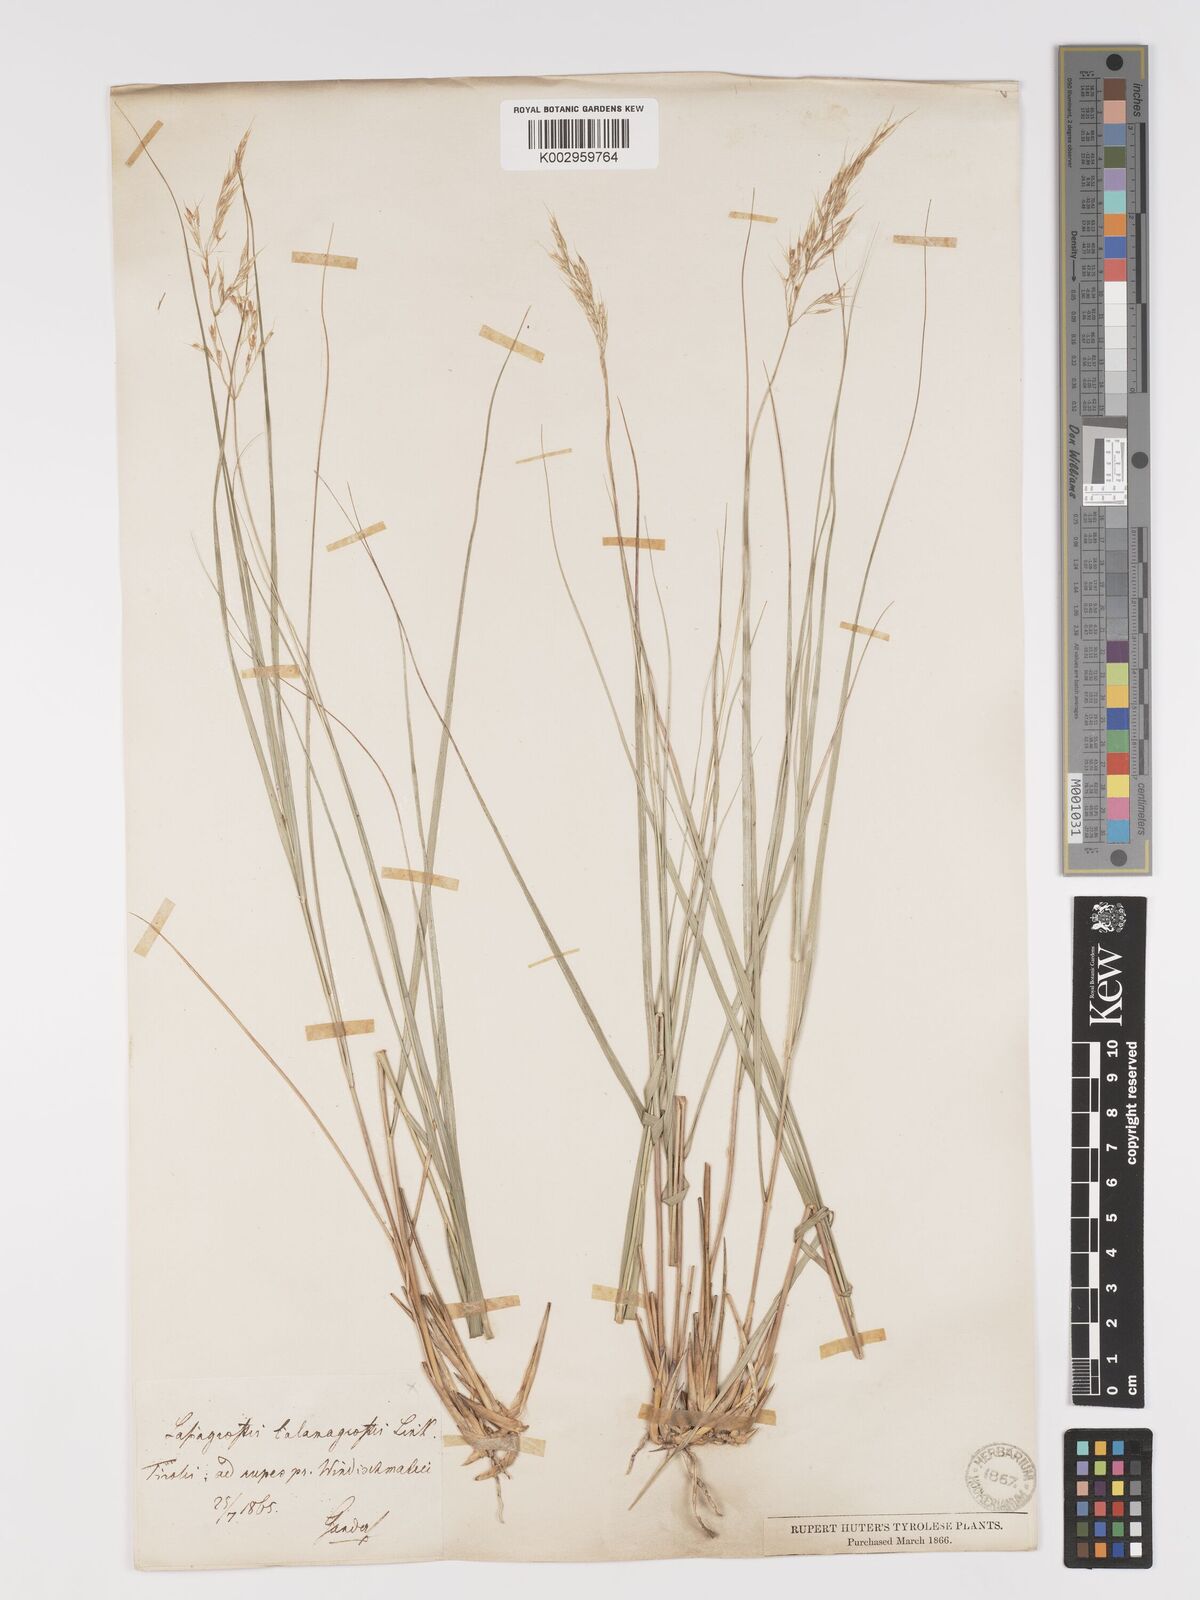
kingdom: Plantae
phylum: Tracheophyta
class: Liliopsida
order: Poales
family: Poaceae
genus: Achnatherum
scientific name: Achnatherum calamagrostis
